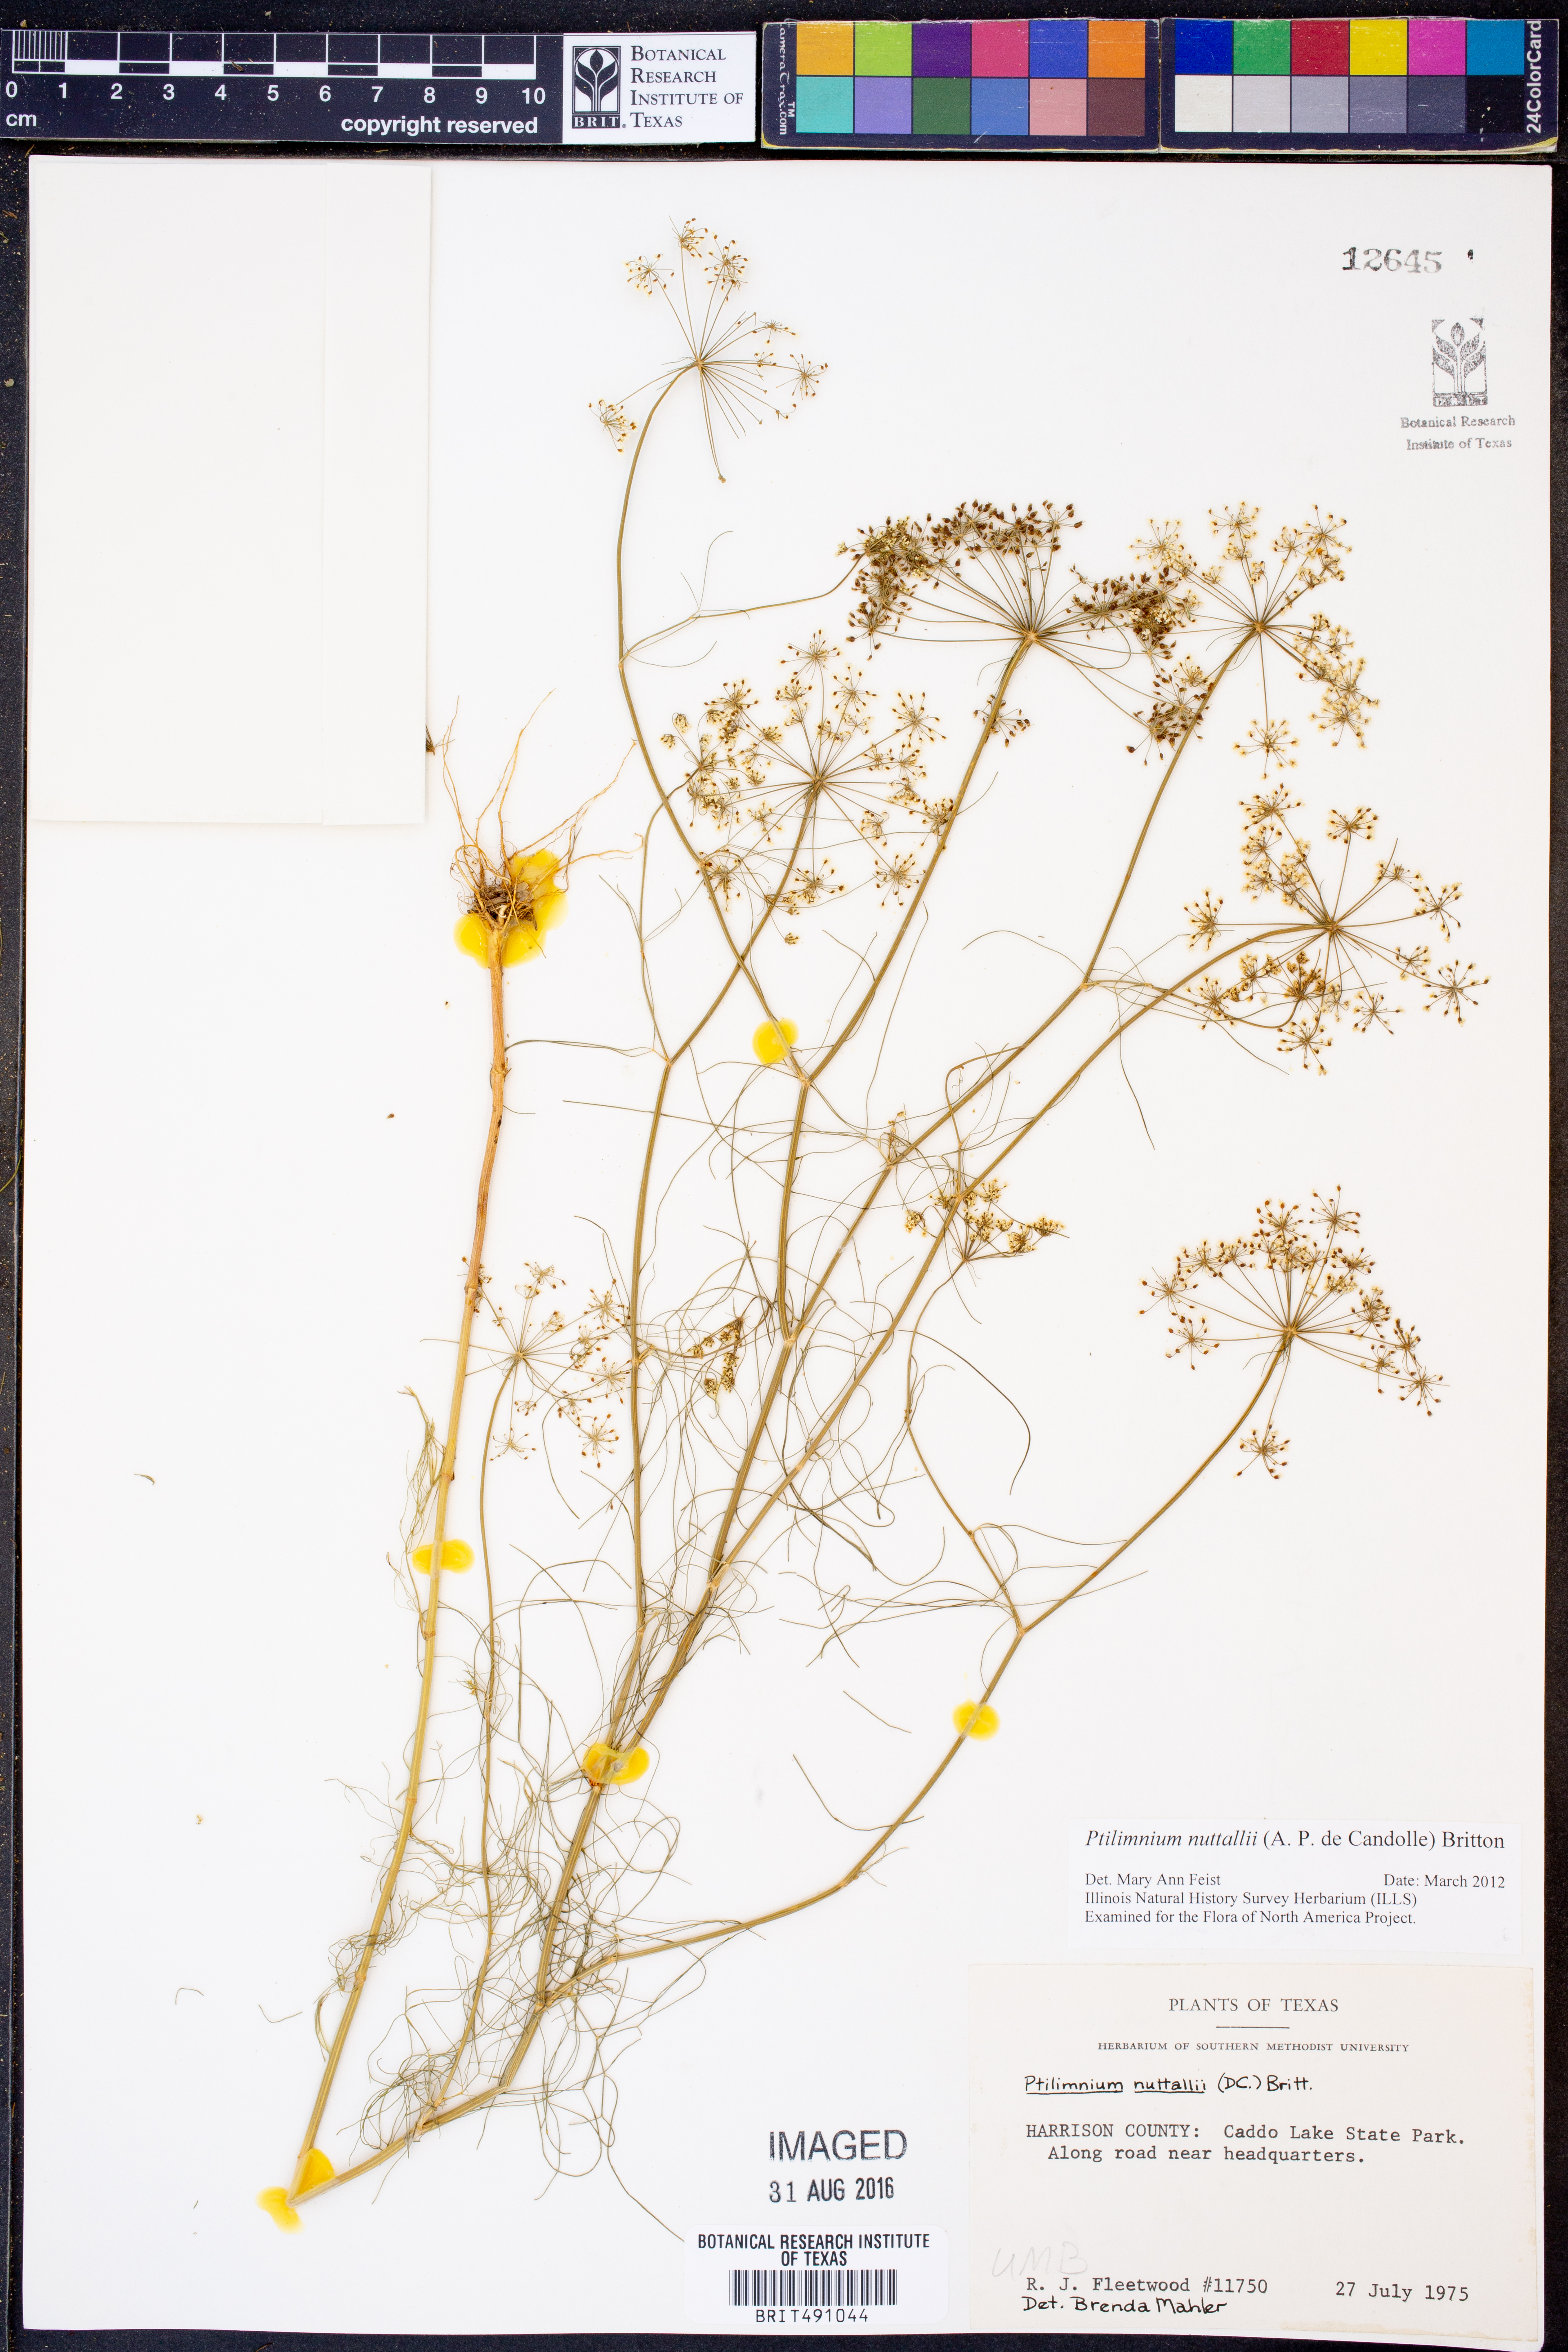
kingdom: Plantae
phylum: Tracheophyta
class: Magnoliopsida
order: Apiales
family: Apiaceae
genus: Ptilimnium
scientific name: Ptilimnium nuttallii
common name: Ozark bishop's-weed
